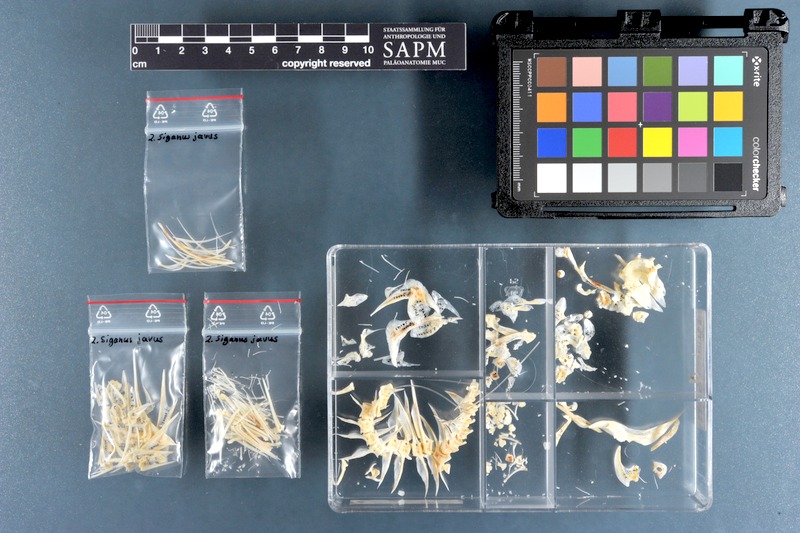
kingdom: Animalia
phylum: Chordata
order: Perciformes
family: Siganidae
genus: Siganus
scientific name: Siganus javus
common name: Java rabbitfish
